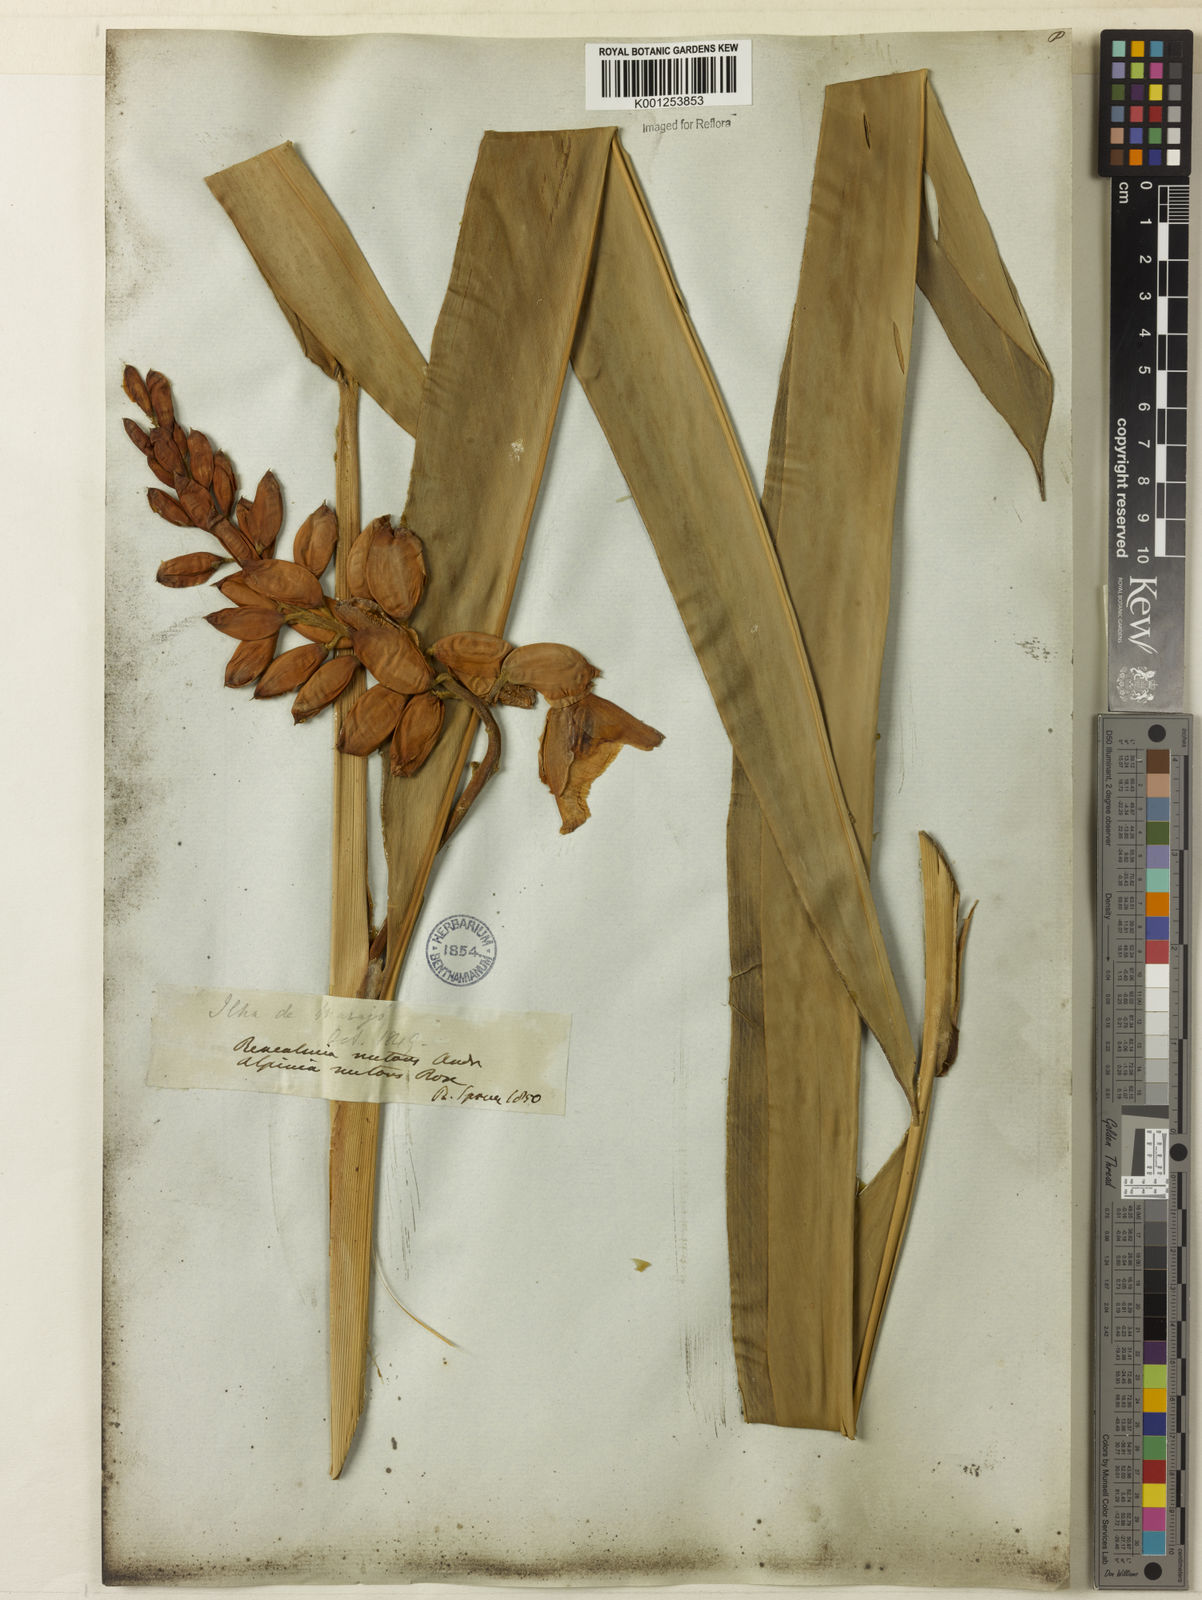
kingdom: Plantae
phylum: Tracheophyta
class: Liliopsida
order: Zingiberales
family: Zingiberaceae
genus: Alpinia
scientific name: Alpinia zerumbet
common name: Shellplant
